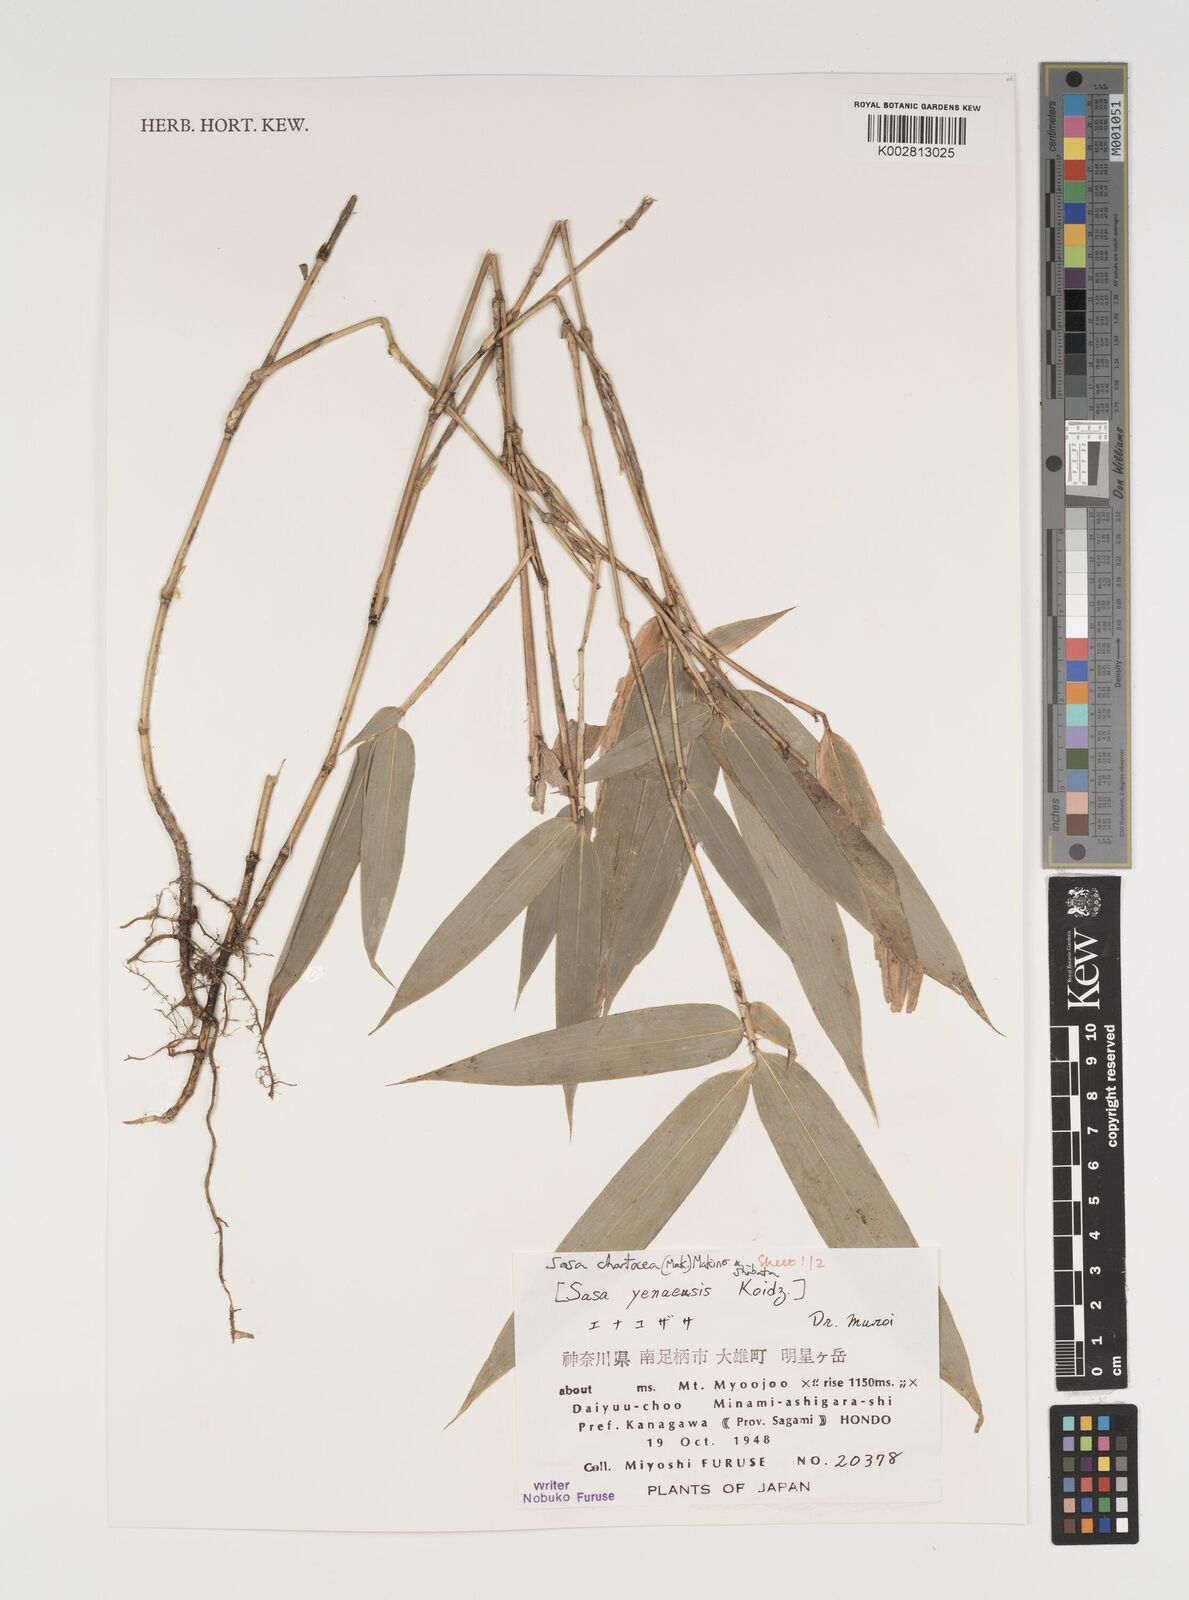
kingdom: Plantae
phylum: Tracheophyta
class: Liliopsida
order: Poales
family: Poaceae
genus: Sasa
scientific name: Sasa chartacea
